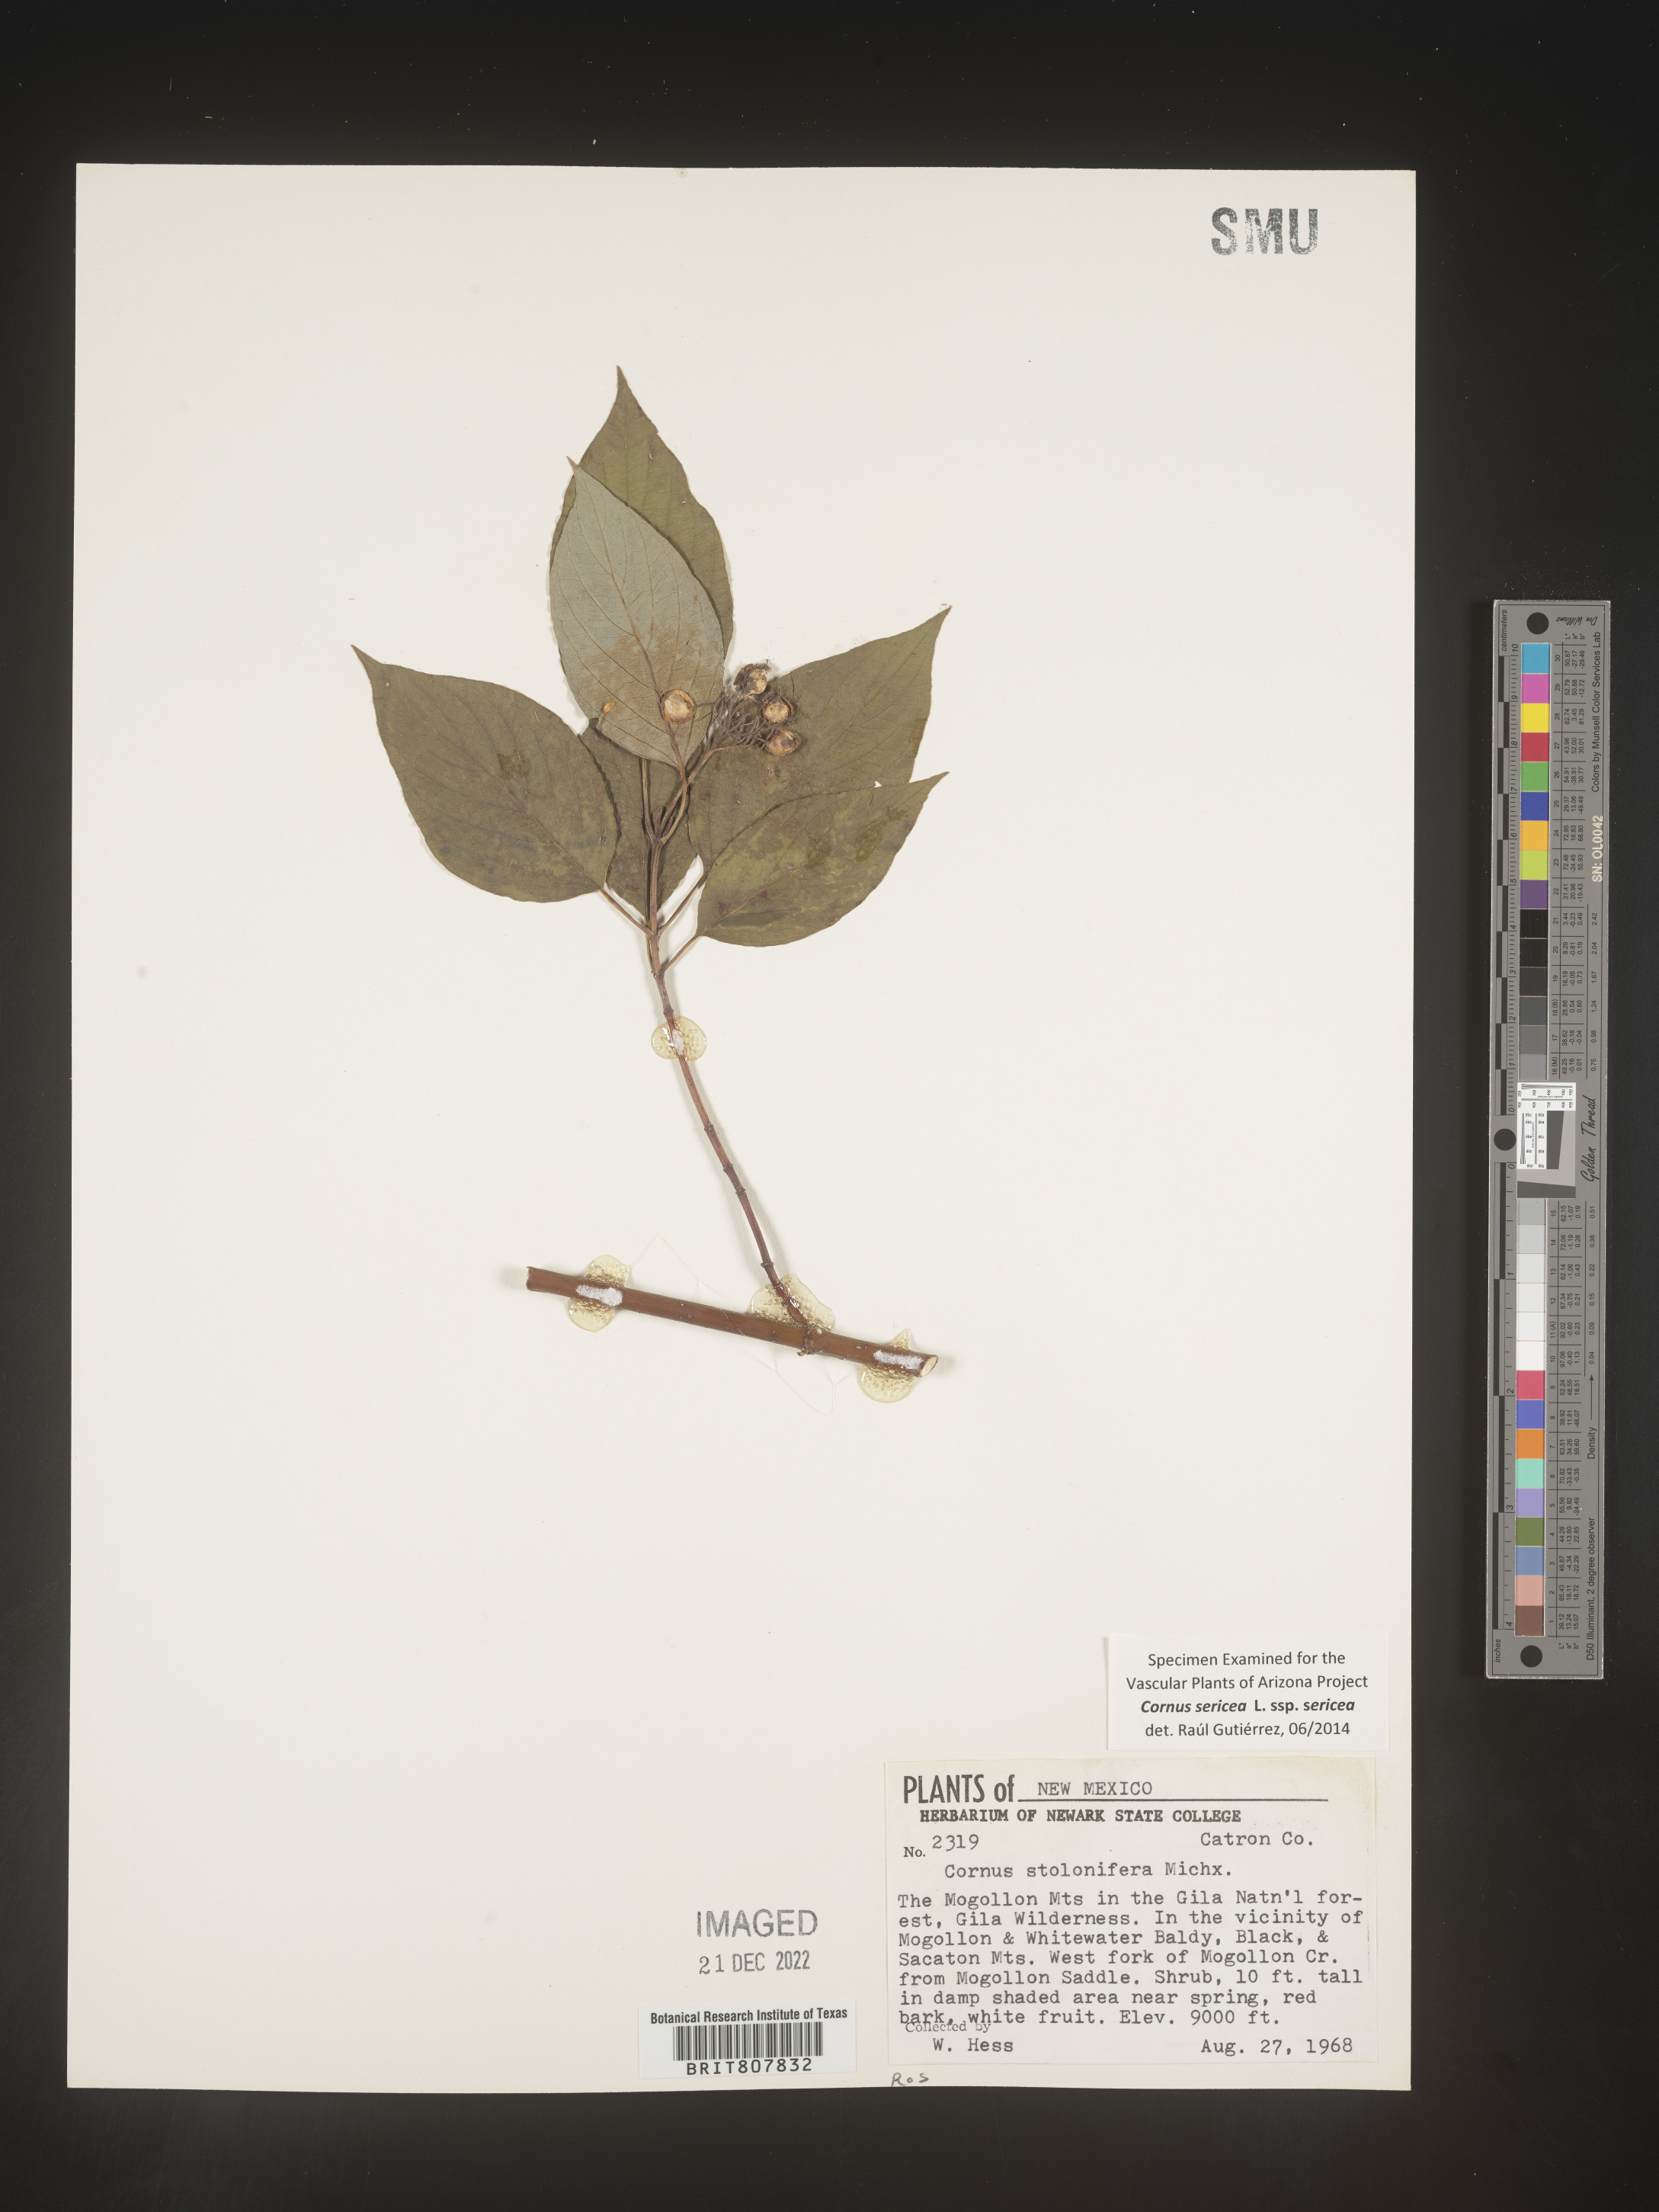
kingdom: Plantae
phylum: Tracheophyta
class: Magnoliopsida
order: Cornales
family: Cornaceae
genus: Cornus
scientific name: Cornus
